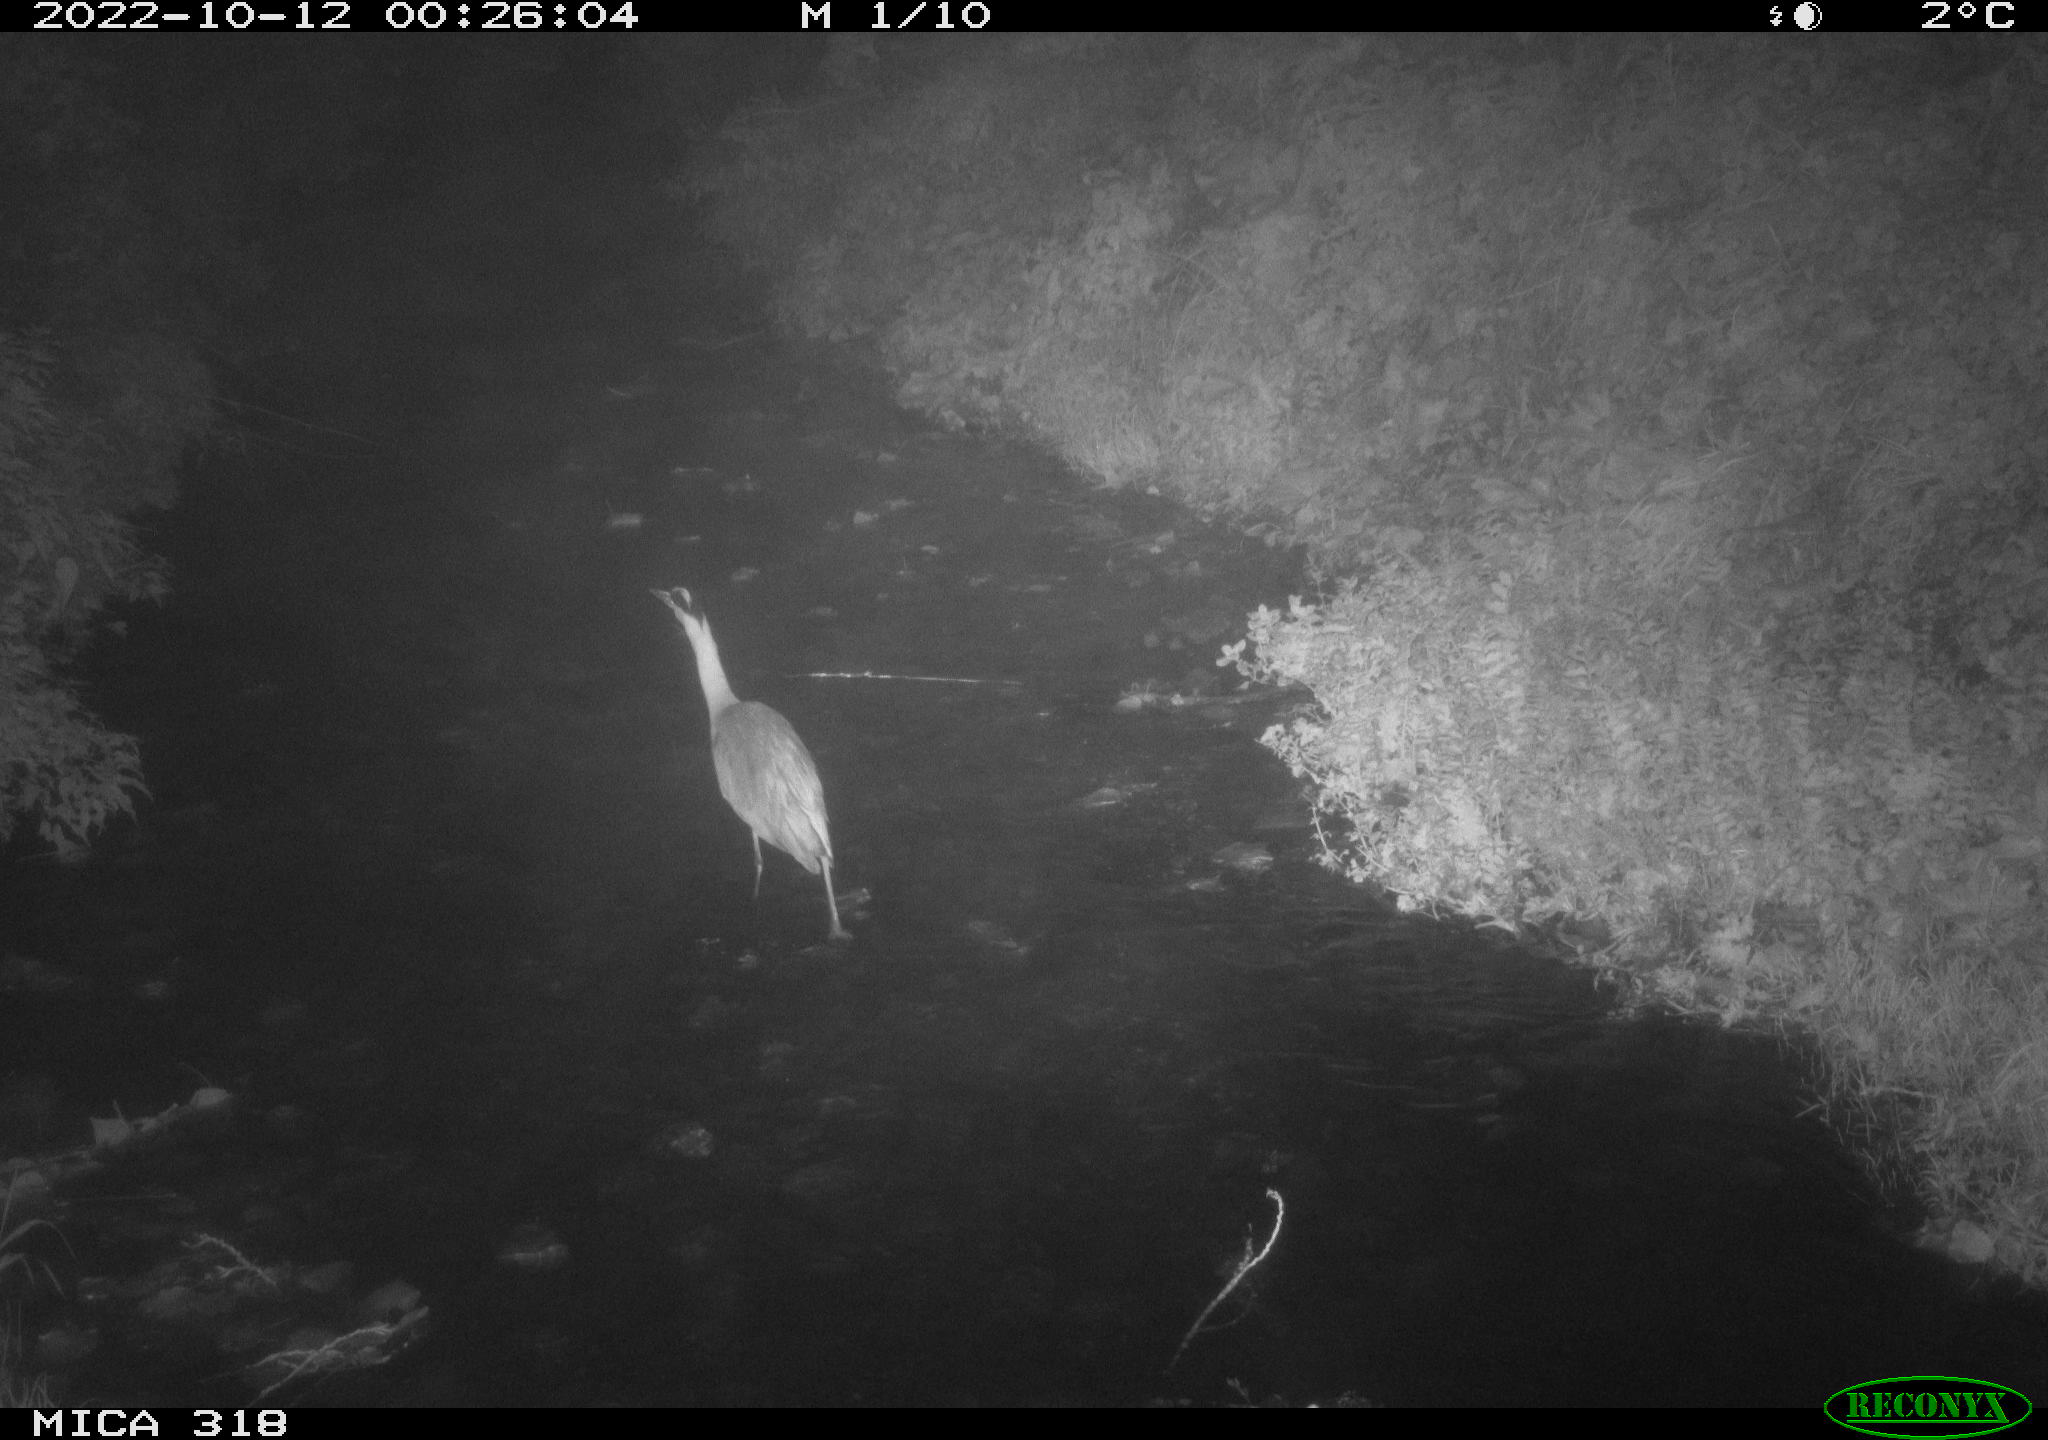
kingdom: Animalia
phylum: Chordata
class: Aves
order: Pelecaniformes
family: Ardeidae
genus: Ardea
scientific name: Ardea cinerea
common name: Grey heron
